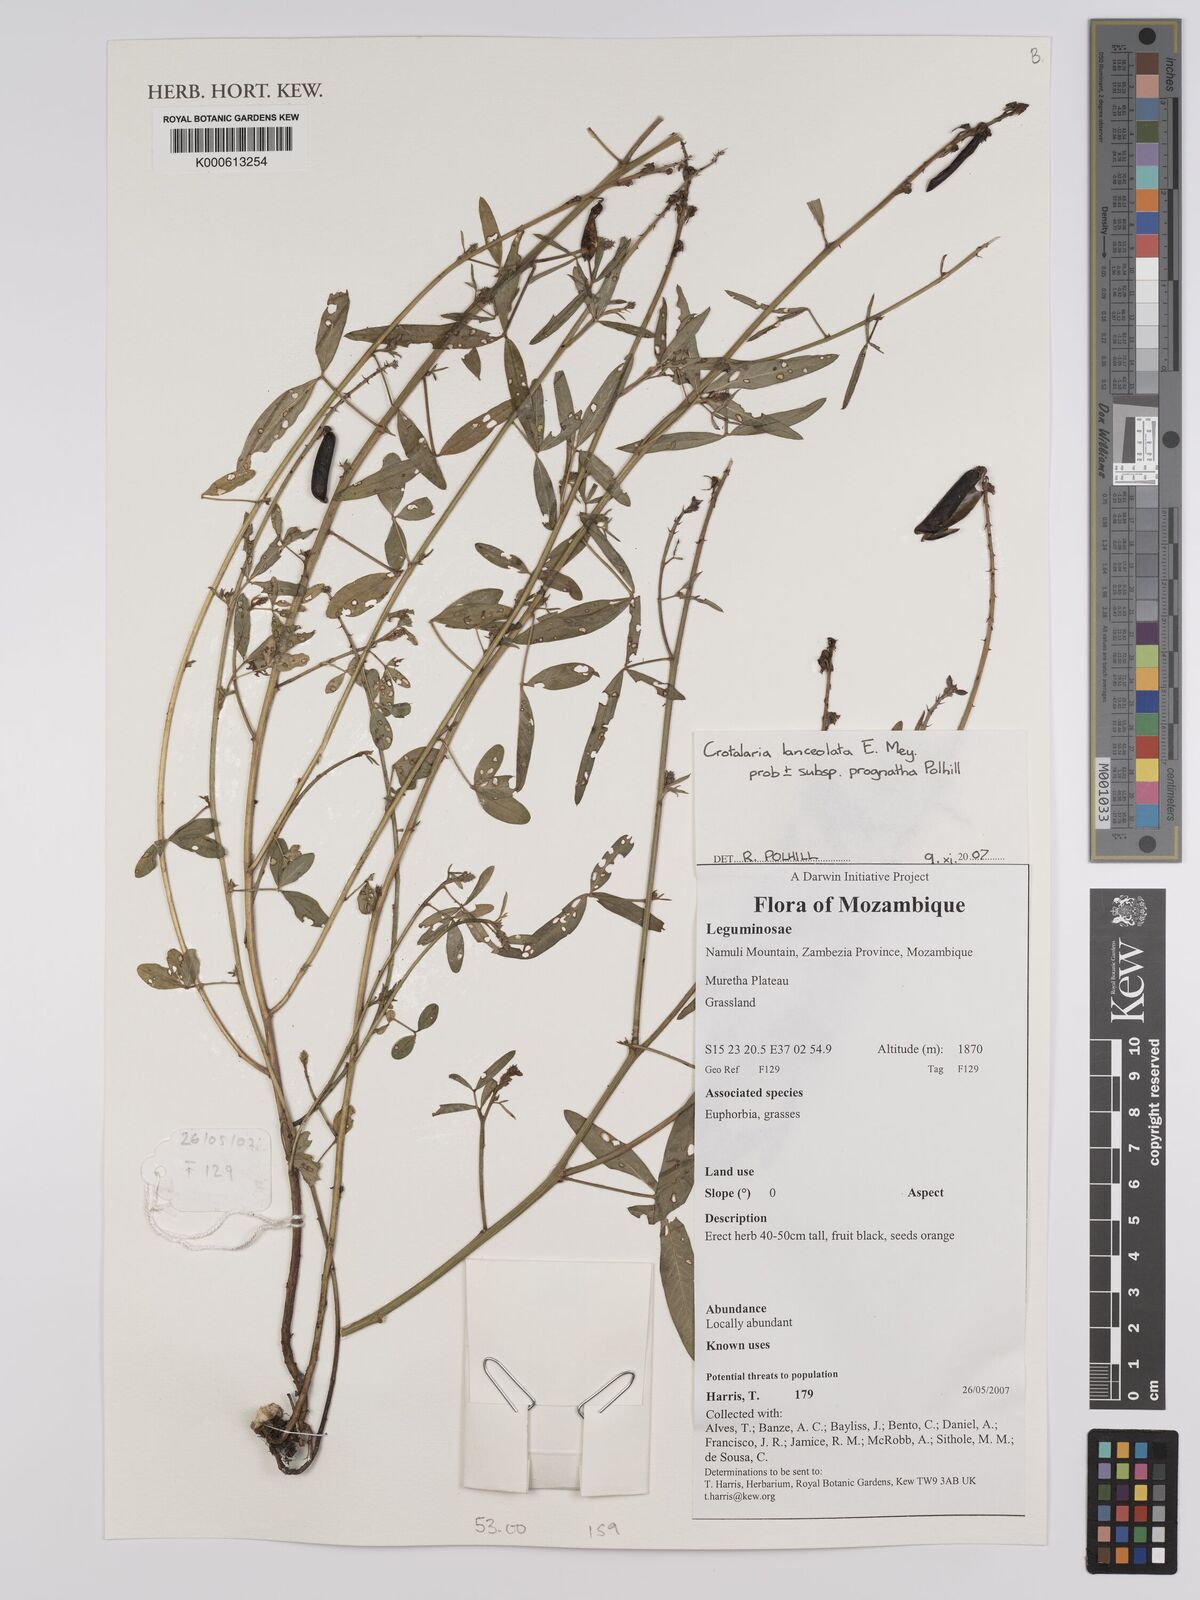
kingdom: Plantae
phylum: Tracheophyta
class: Magnoliopsida
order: Fabales
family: Fabaceae
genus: Crotalaria
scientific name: Crotalaria lanceolata
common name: Lanceleaf rattlebox
